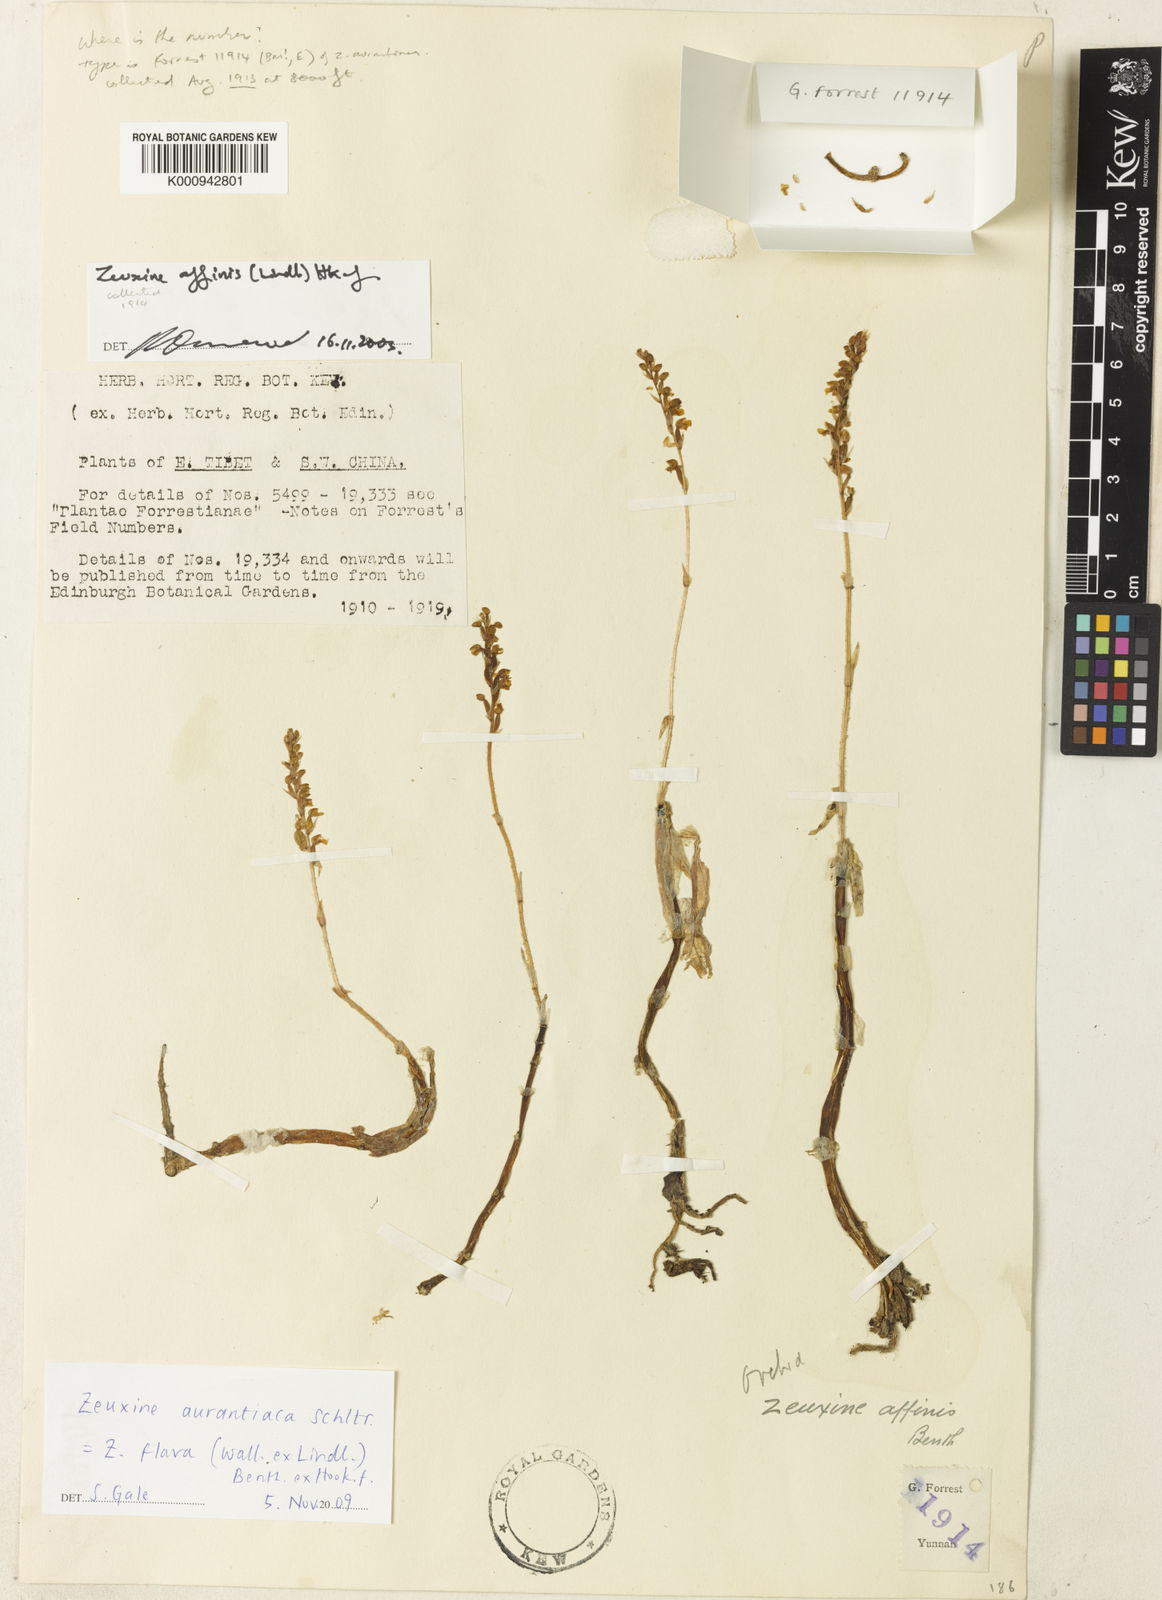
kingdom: Plantae
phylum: Tracheophyta
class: Liliopsida
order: Asparagales
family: Orchidaceae
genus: Zeuxine
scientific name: Zeuxine flava
